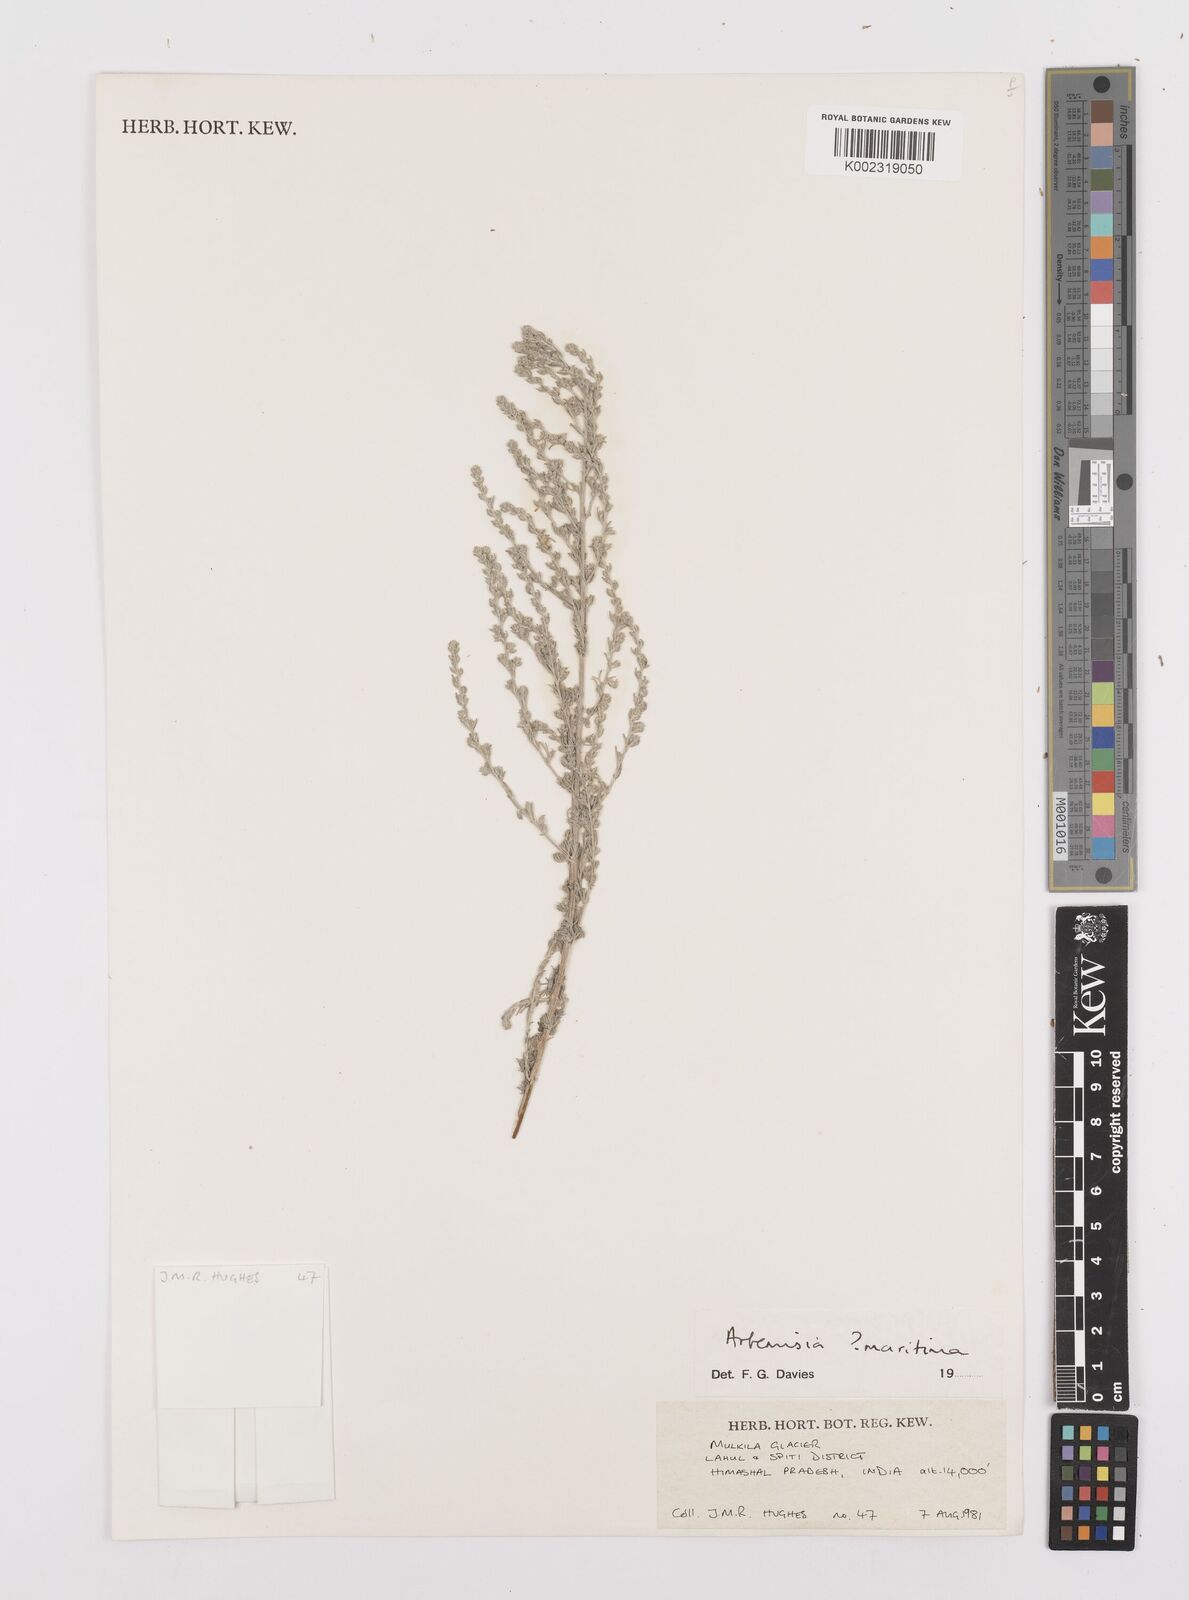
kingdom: Plantae
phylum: Tracheophyta
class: Magnoliopsida
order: Asterales
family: Asteraceae
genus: Artemisia
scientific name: Artemisia brevifolia
